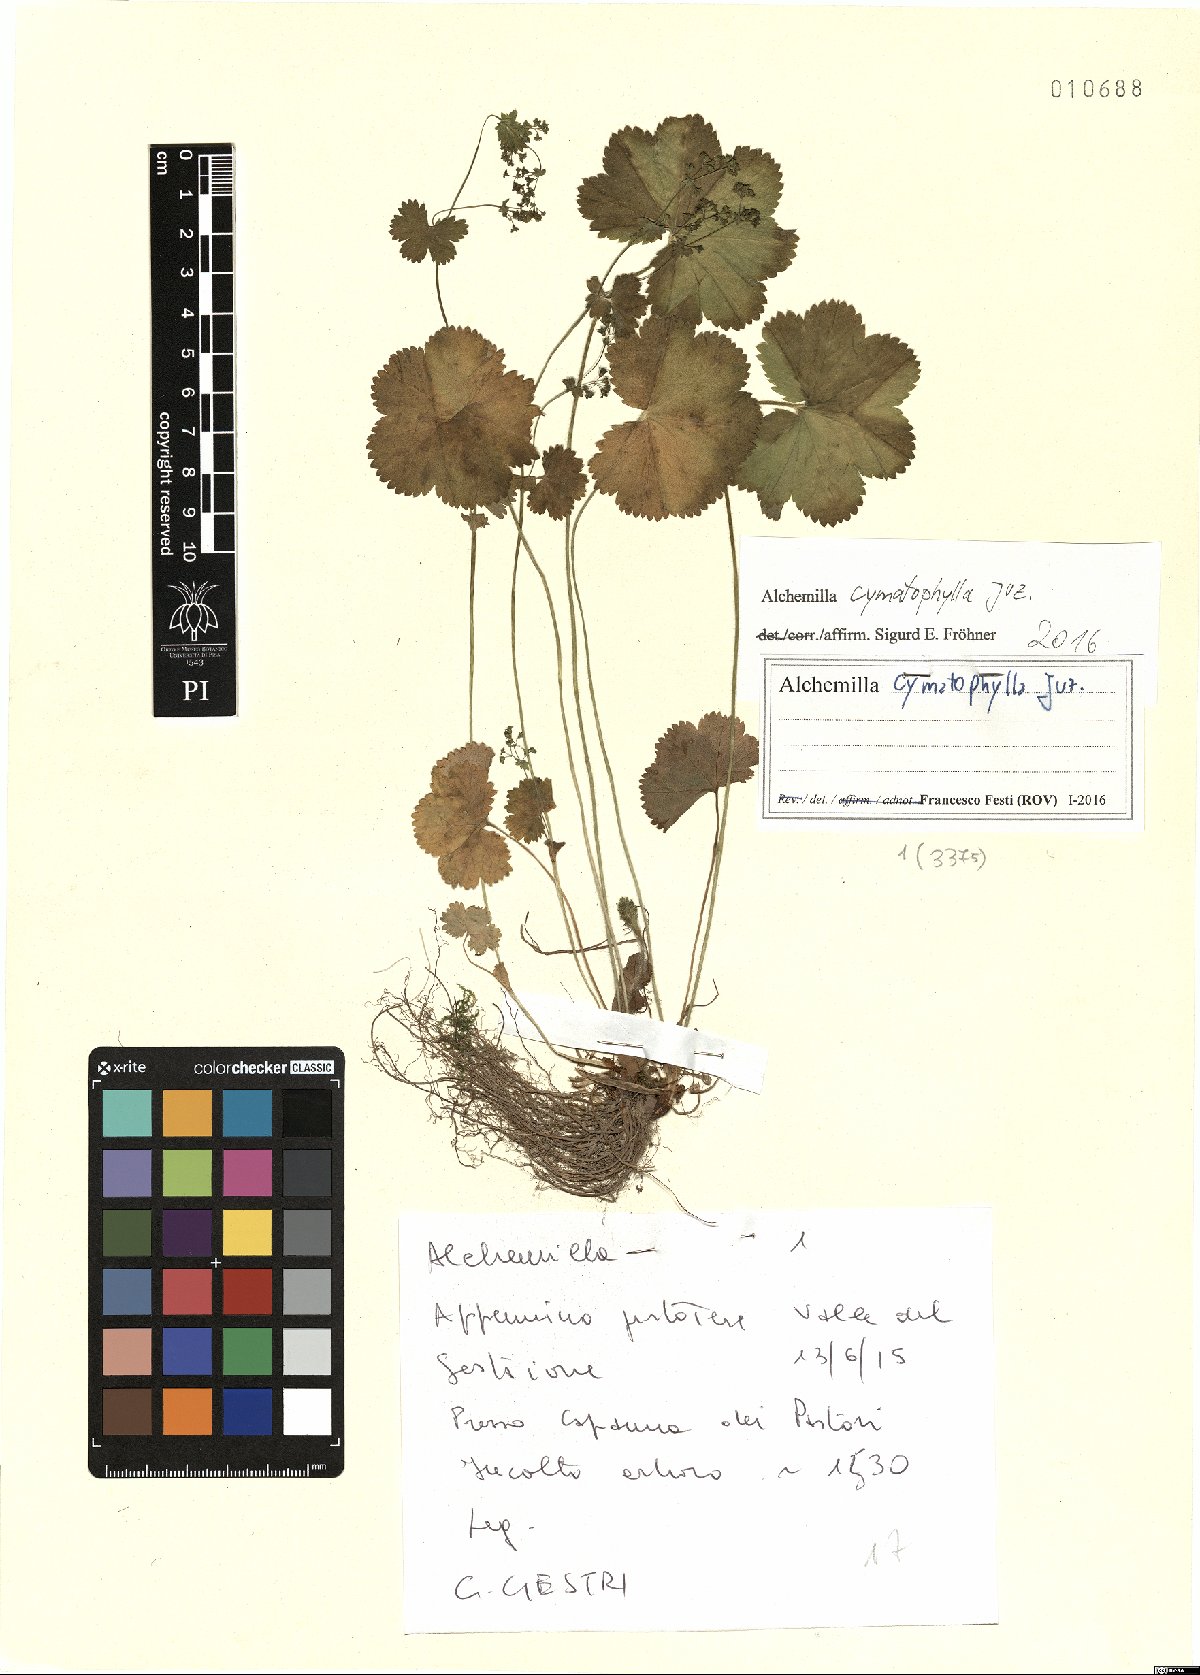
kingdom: Plantae
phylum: Tracheophyta
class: Magnoliopsida
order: Rosales
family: Rosaceae
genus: Alchemilla
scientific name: Alchemilla cymatophylla
